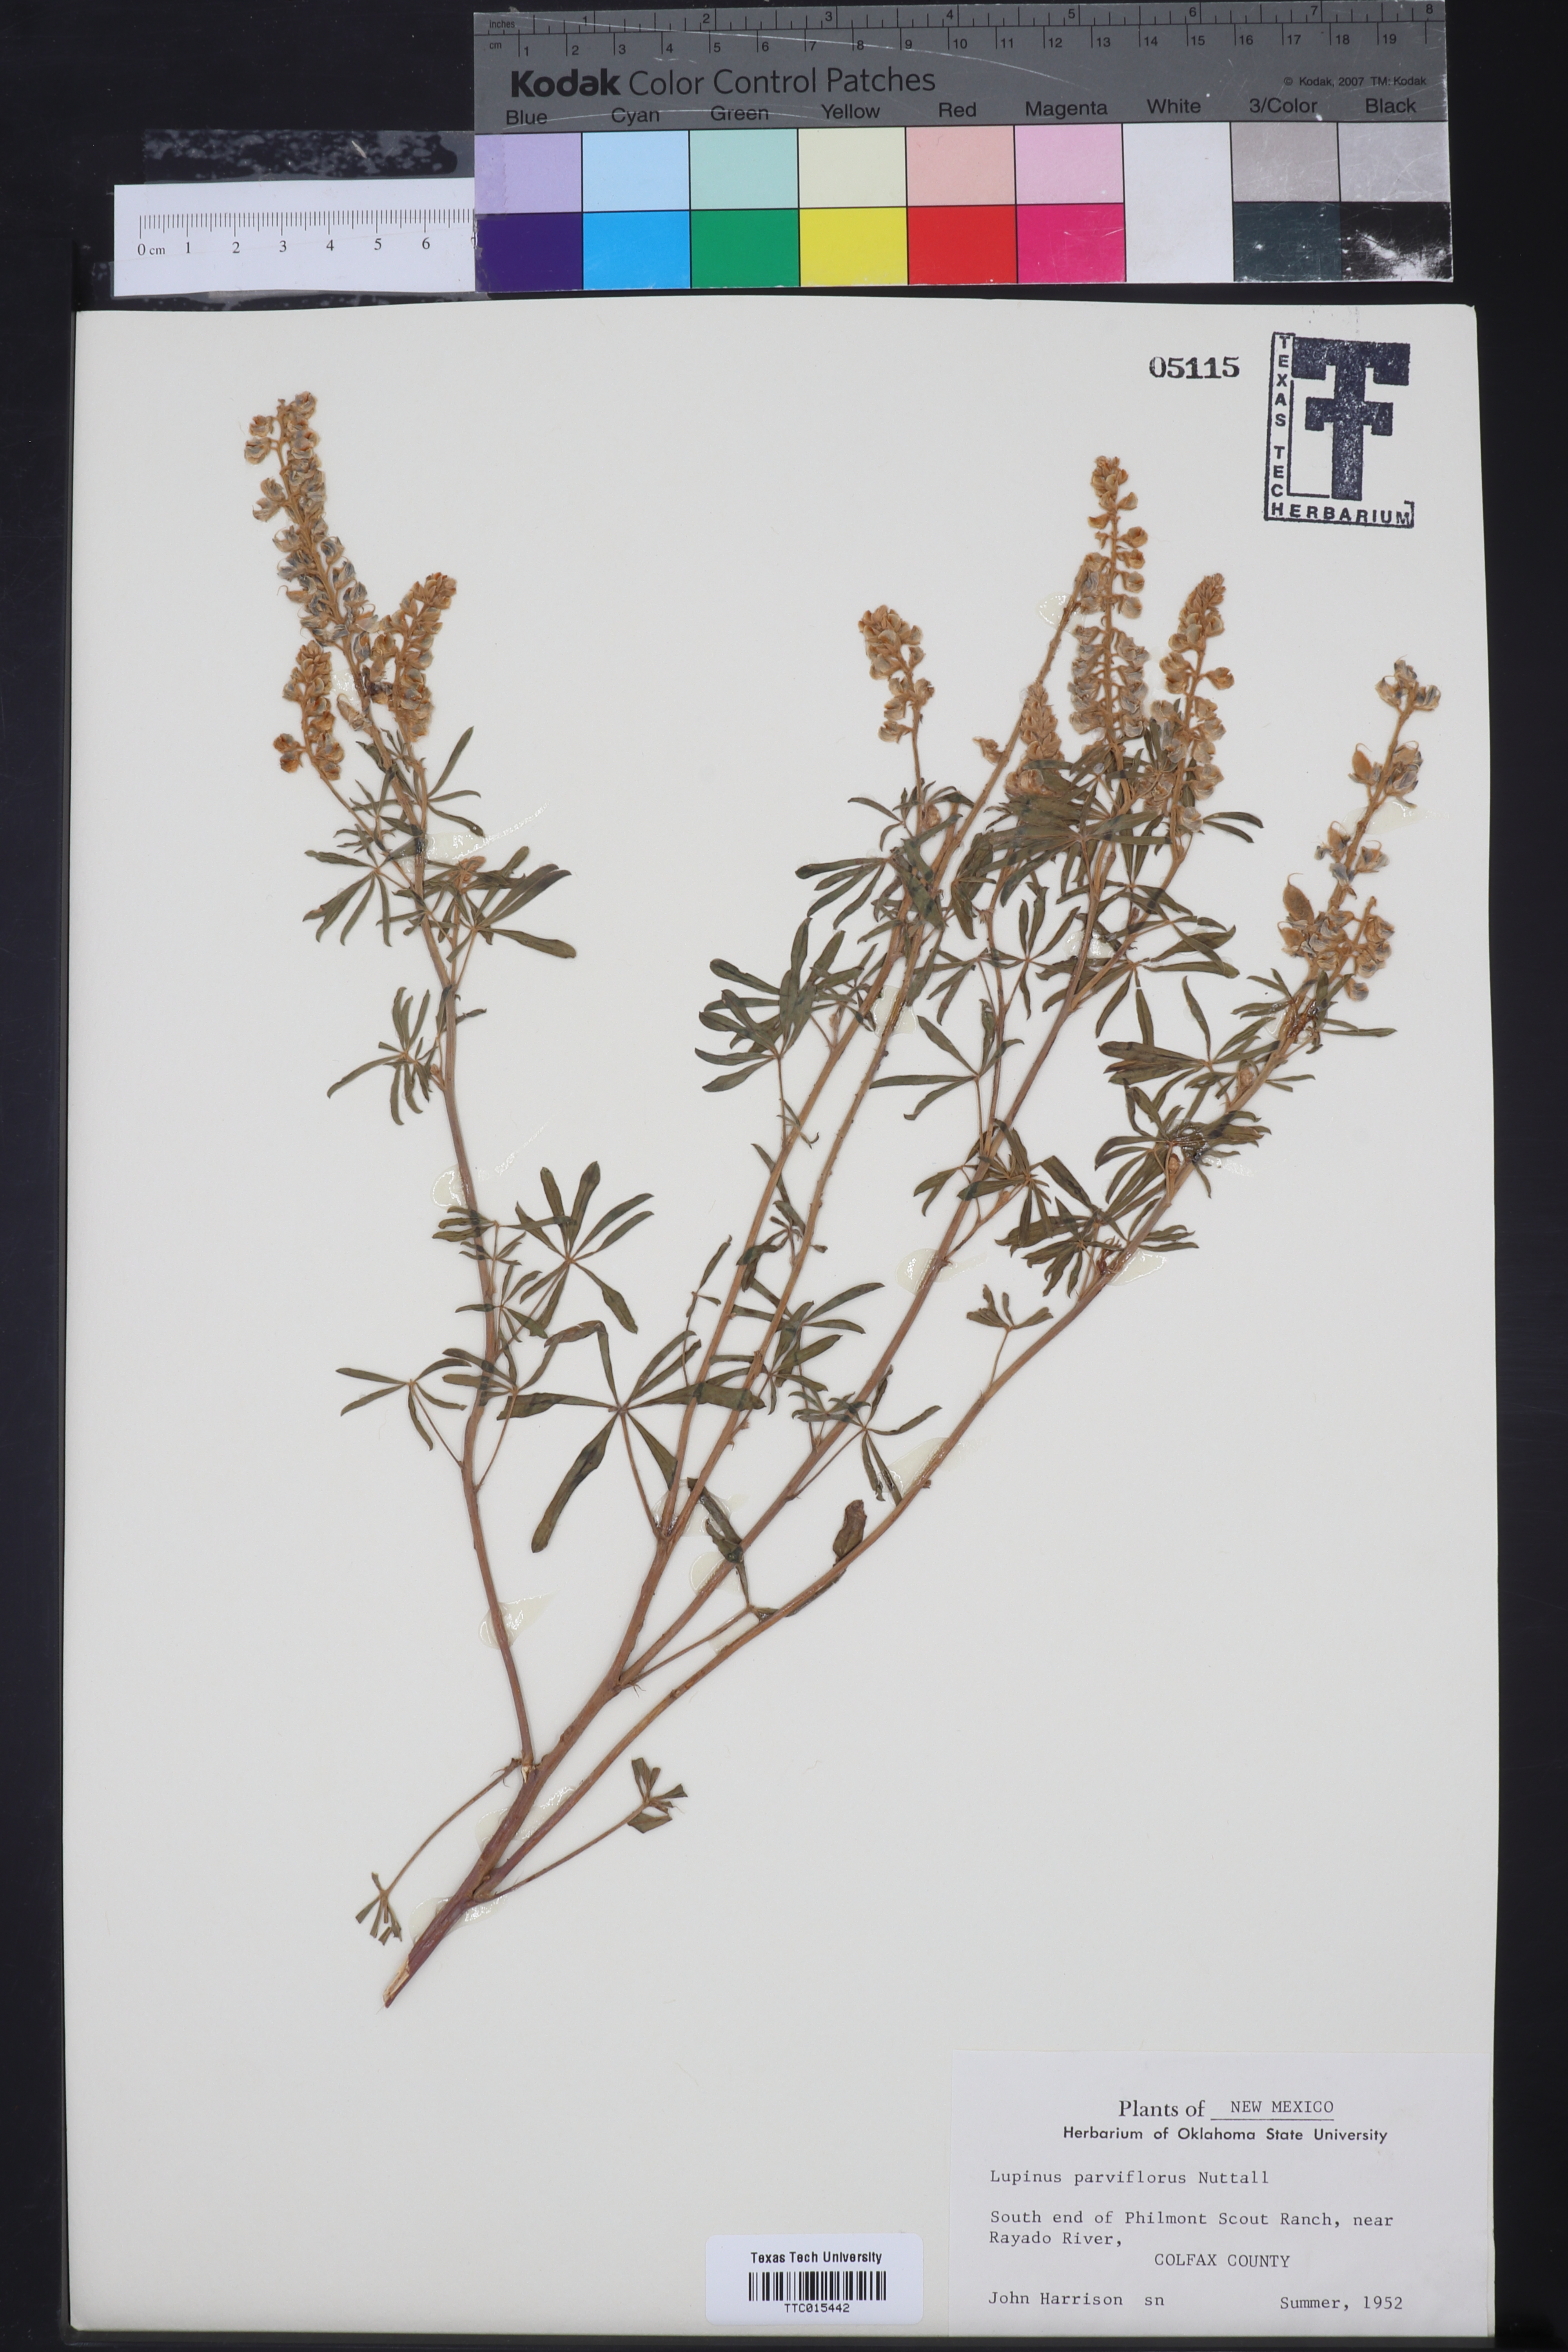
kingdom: Plantae
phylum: Tracheophyta
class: Magnoliopsida
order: Fabales
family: Fabaceae
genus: Lupinus
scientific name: Lupinus argenteus
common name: Silvery lupine
